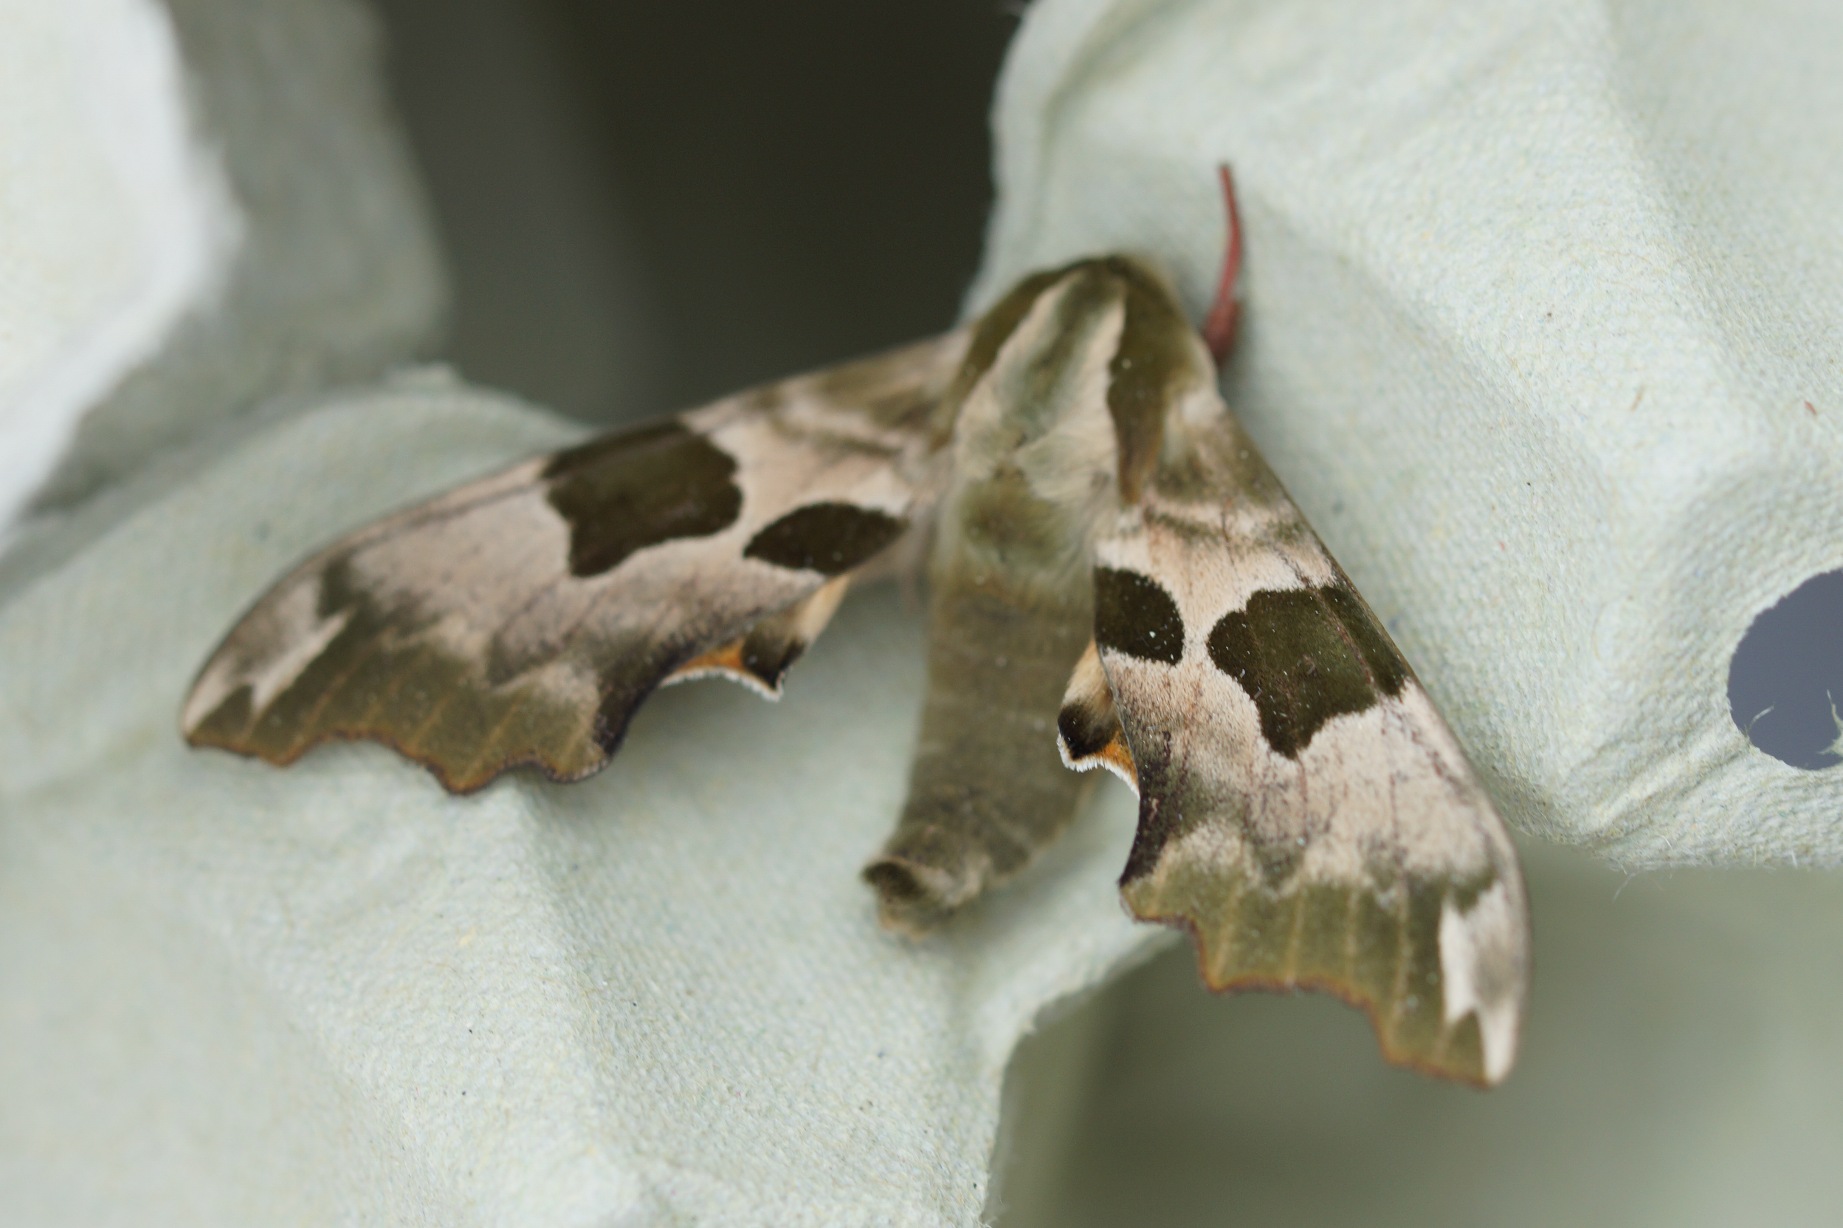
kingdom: Animalia
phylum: Arthropoda
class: Insecta
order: Lepidoptera
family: Sphingidae
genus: Mimas
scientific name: Mimas tiliae
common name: Lindesværmer
